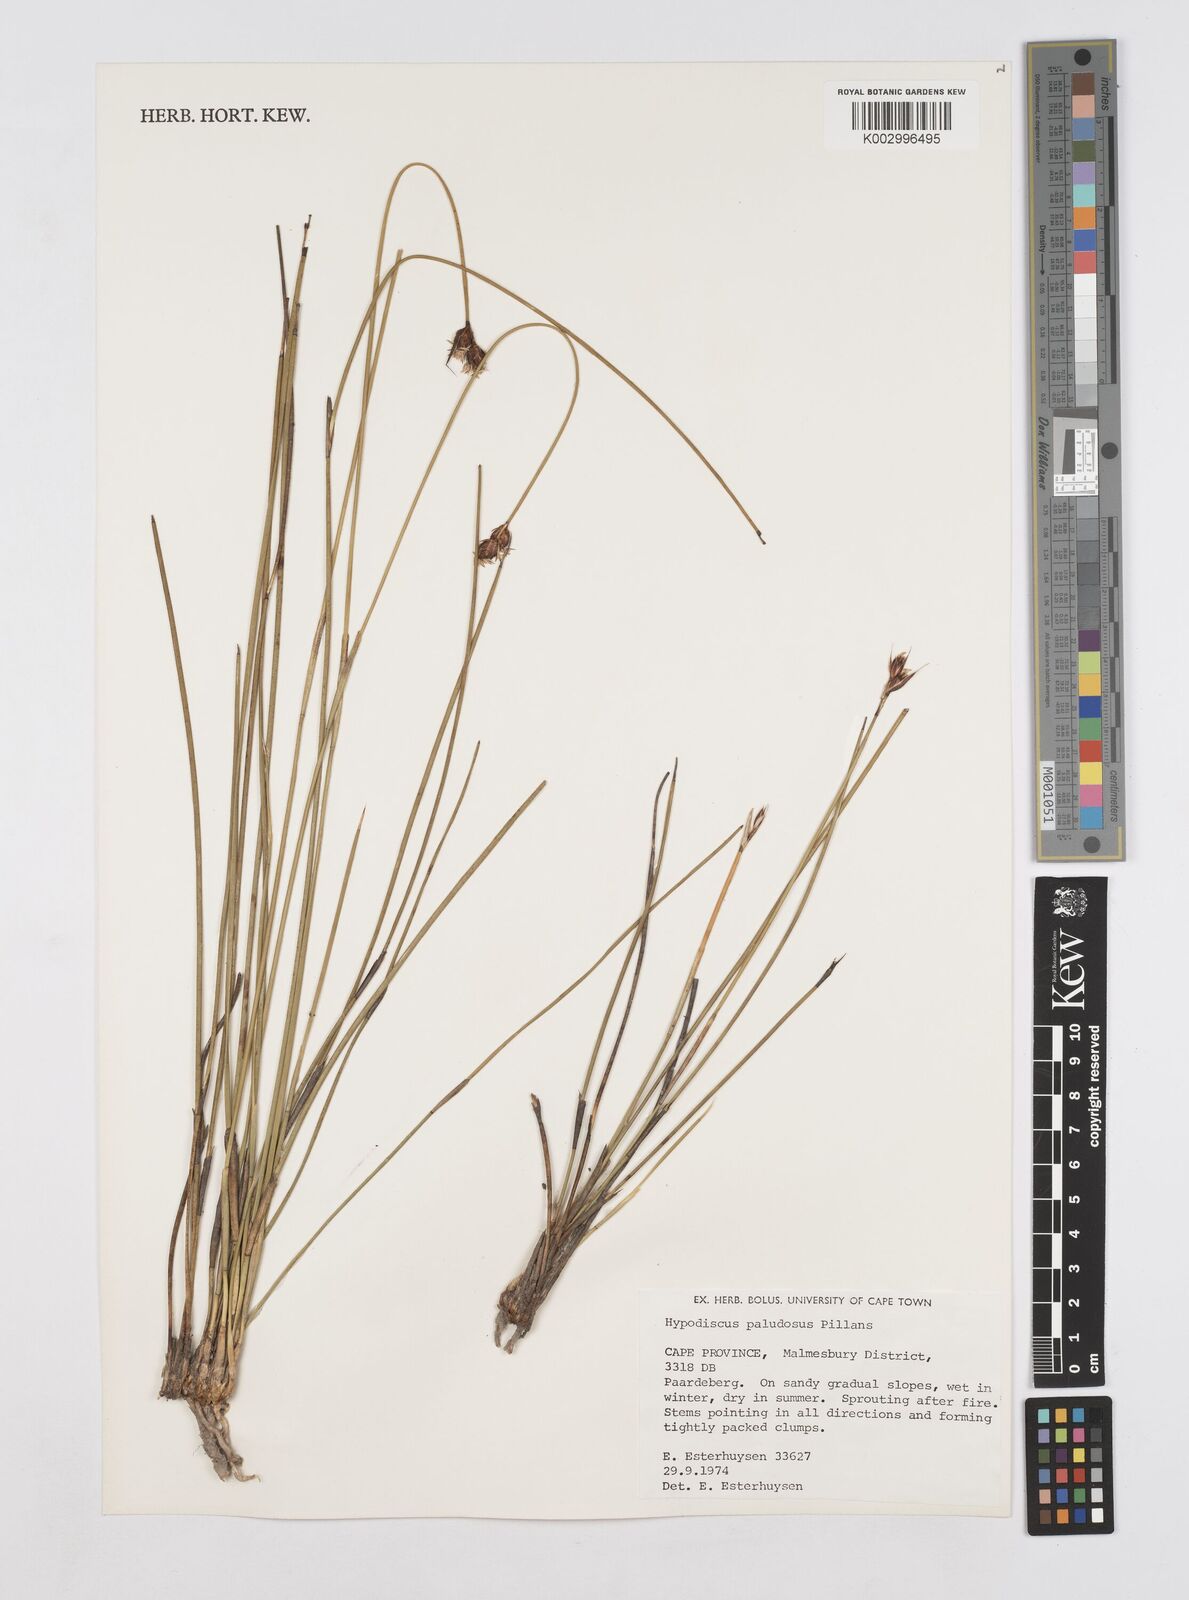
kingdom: Plantae
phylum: Tracheophyta
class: Liliopsida
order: Poales
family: Restionaceae
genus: Hypodiscus
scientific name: Hypodiscus rugosus
